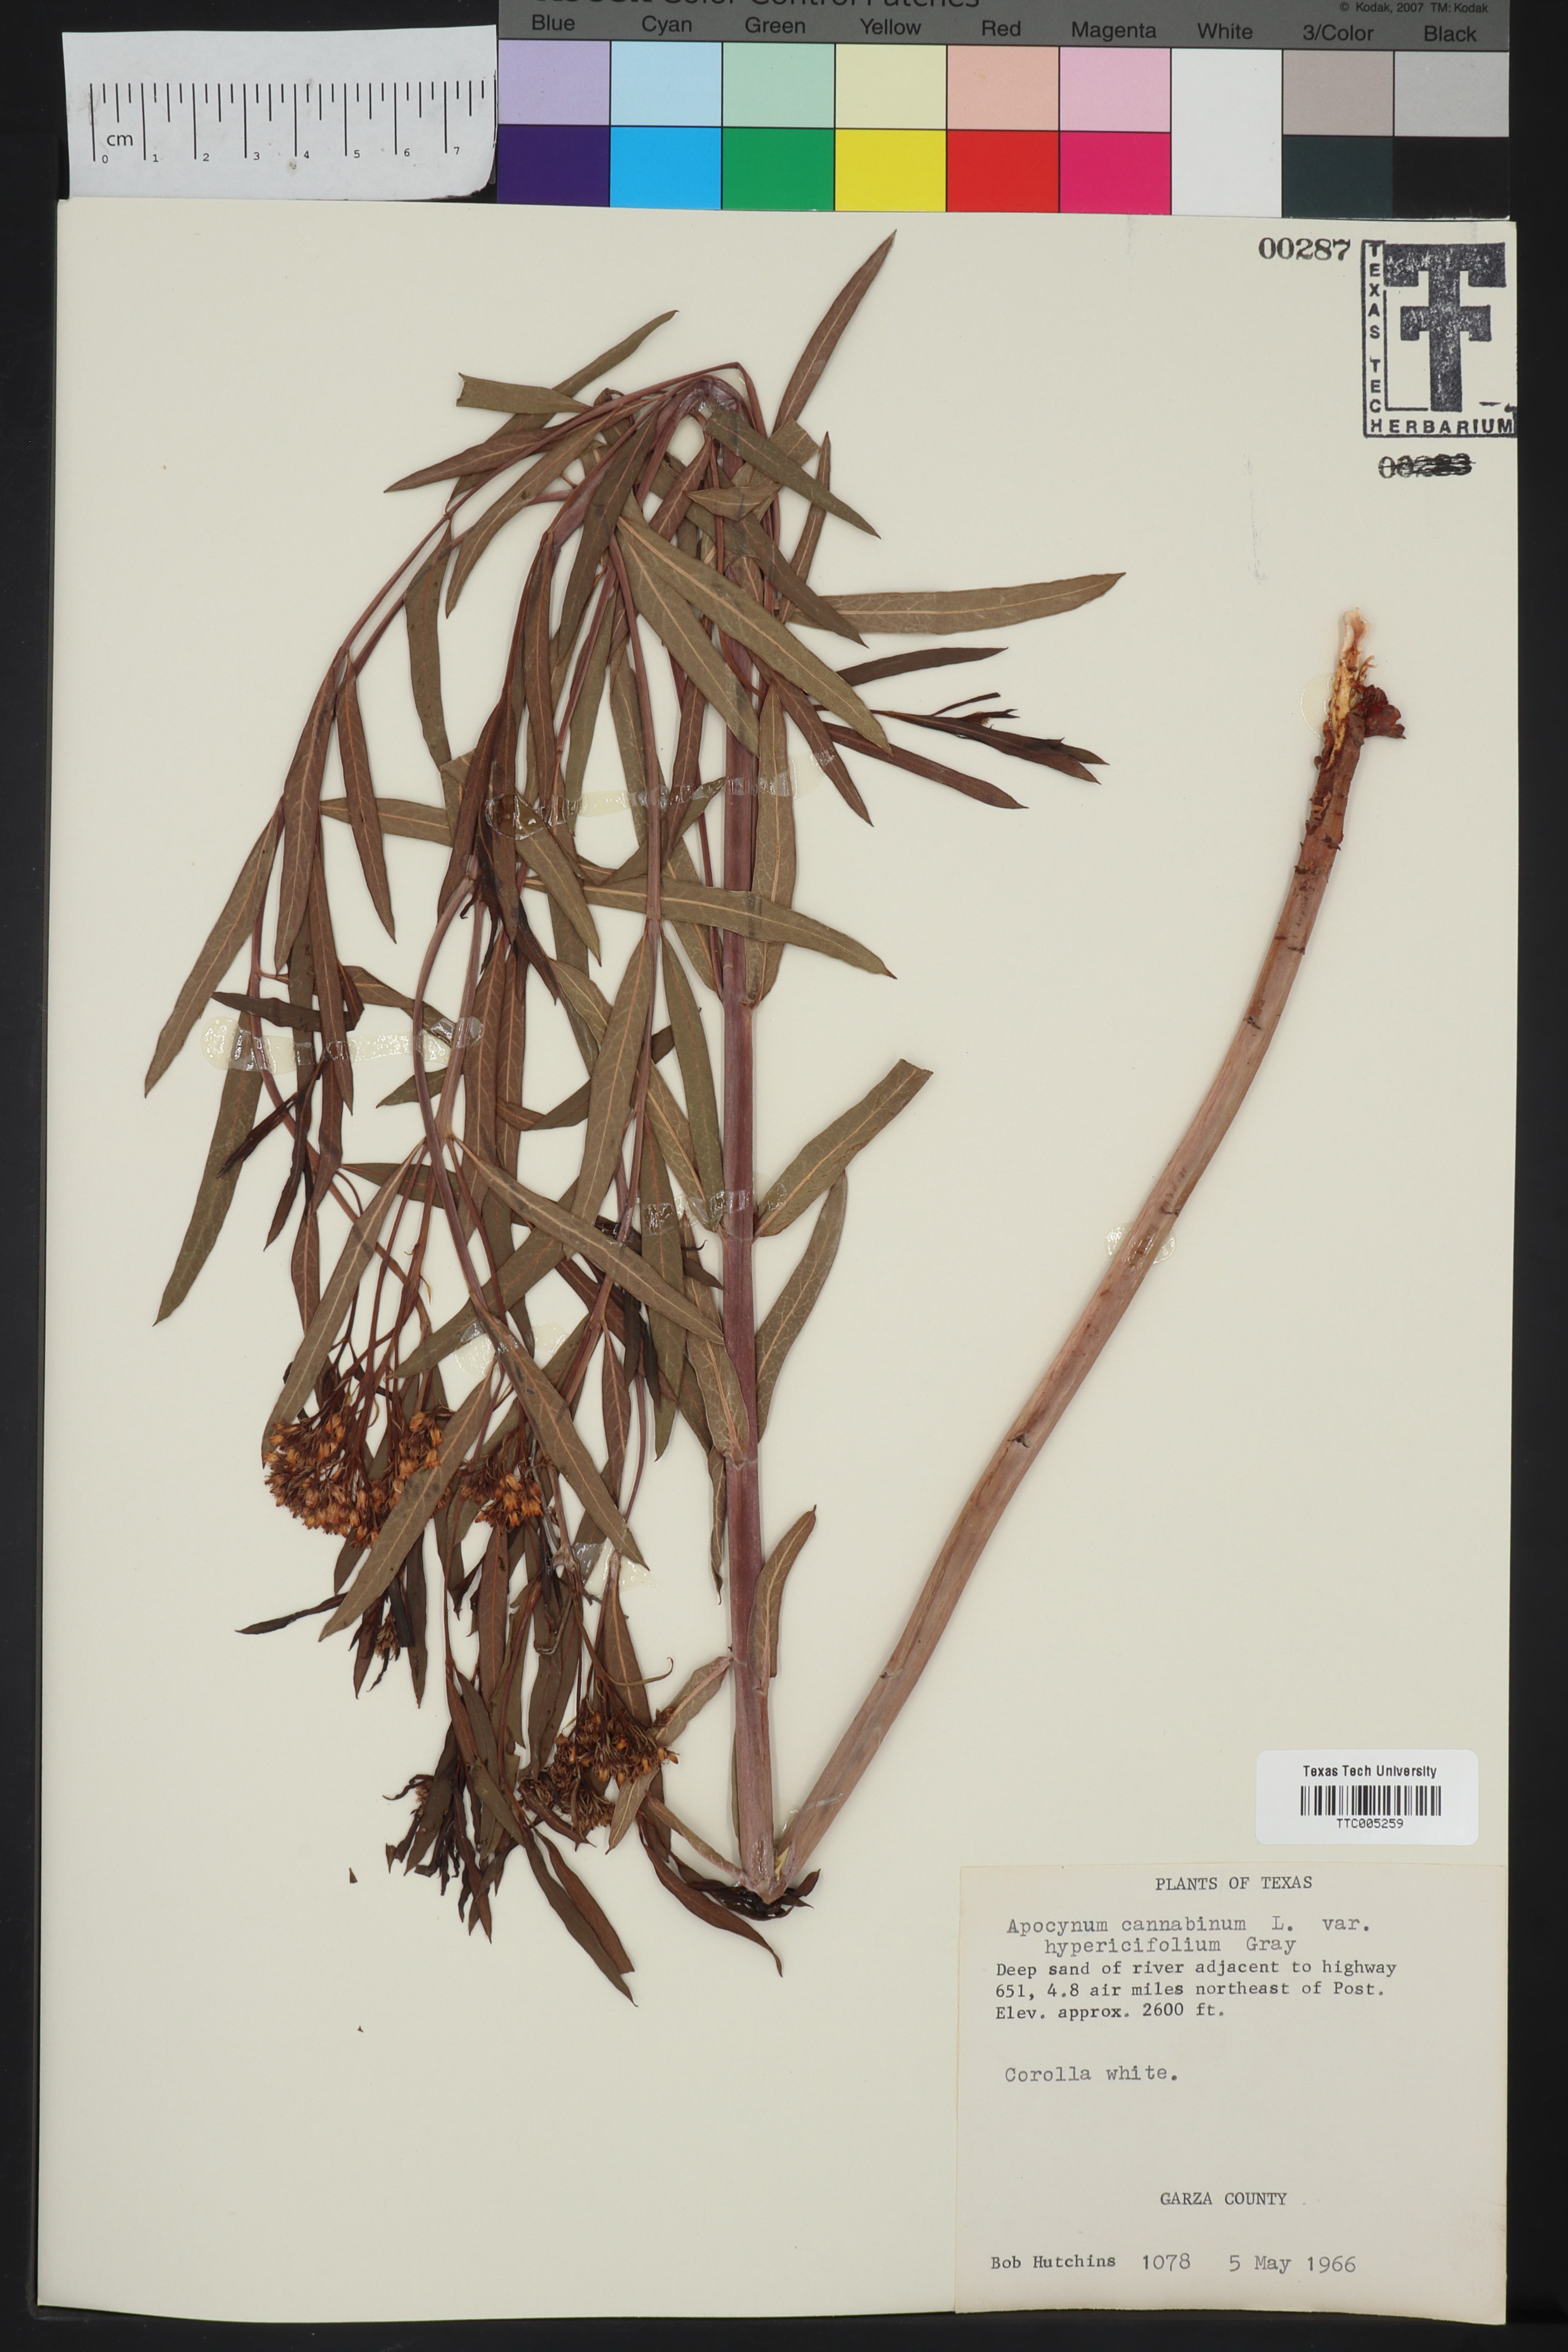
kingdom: Plantae
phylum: Tracheophyta
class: Magnoliopsida
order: Gentianales
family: Apocynaceae
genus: Apocynum
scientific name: Apocynum cannabinum
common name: Hemp dogbane
